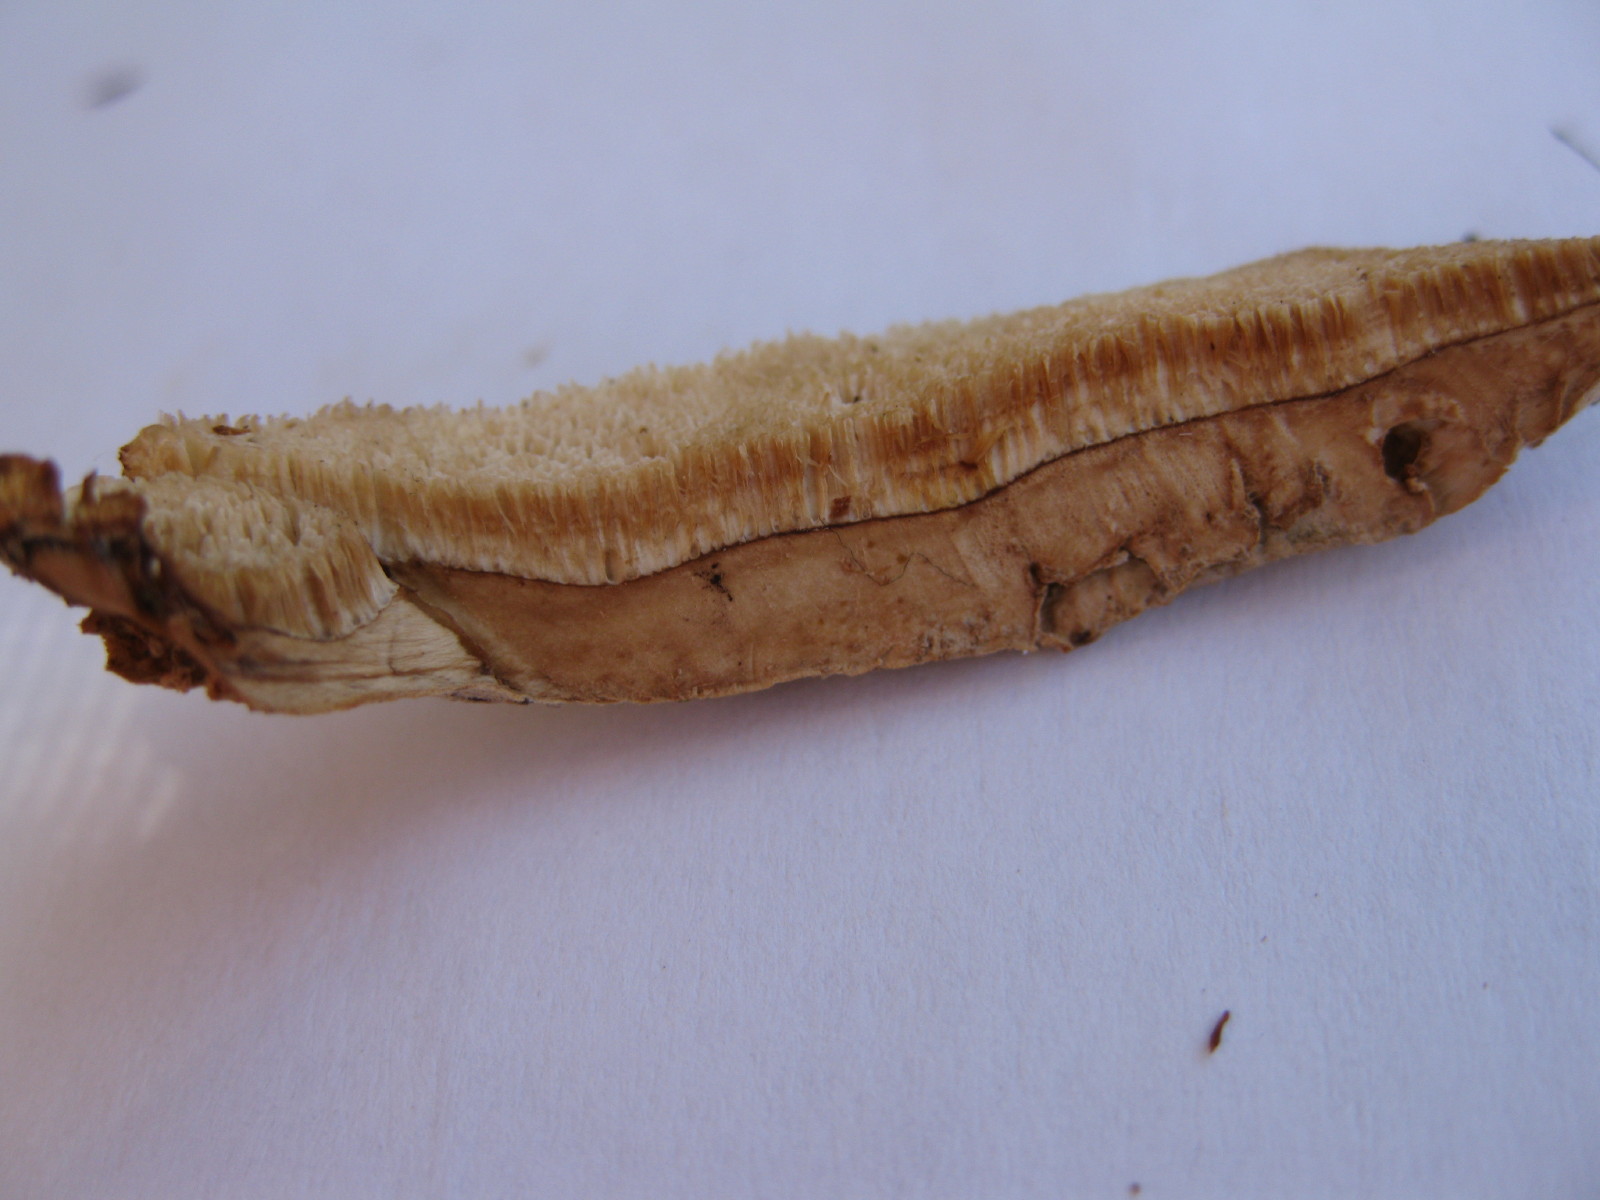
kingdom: Fungi
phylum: Basidiomycota
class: Agaricomycetes
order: Polyporales
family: Phanerochaetaceae
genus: Bjerkandera
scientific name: Bjerkandera fumosa
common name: grågul sodporesvamp
